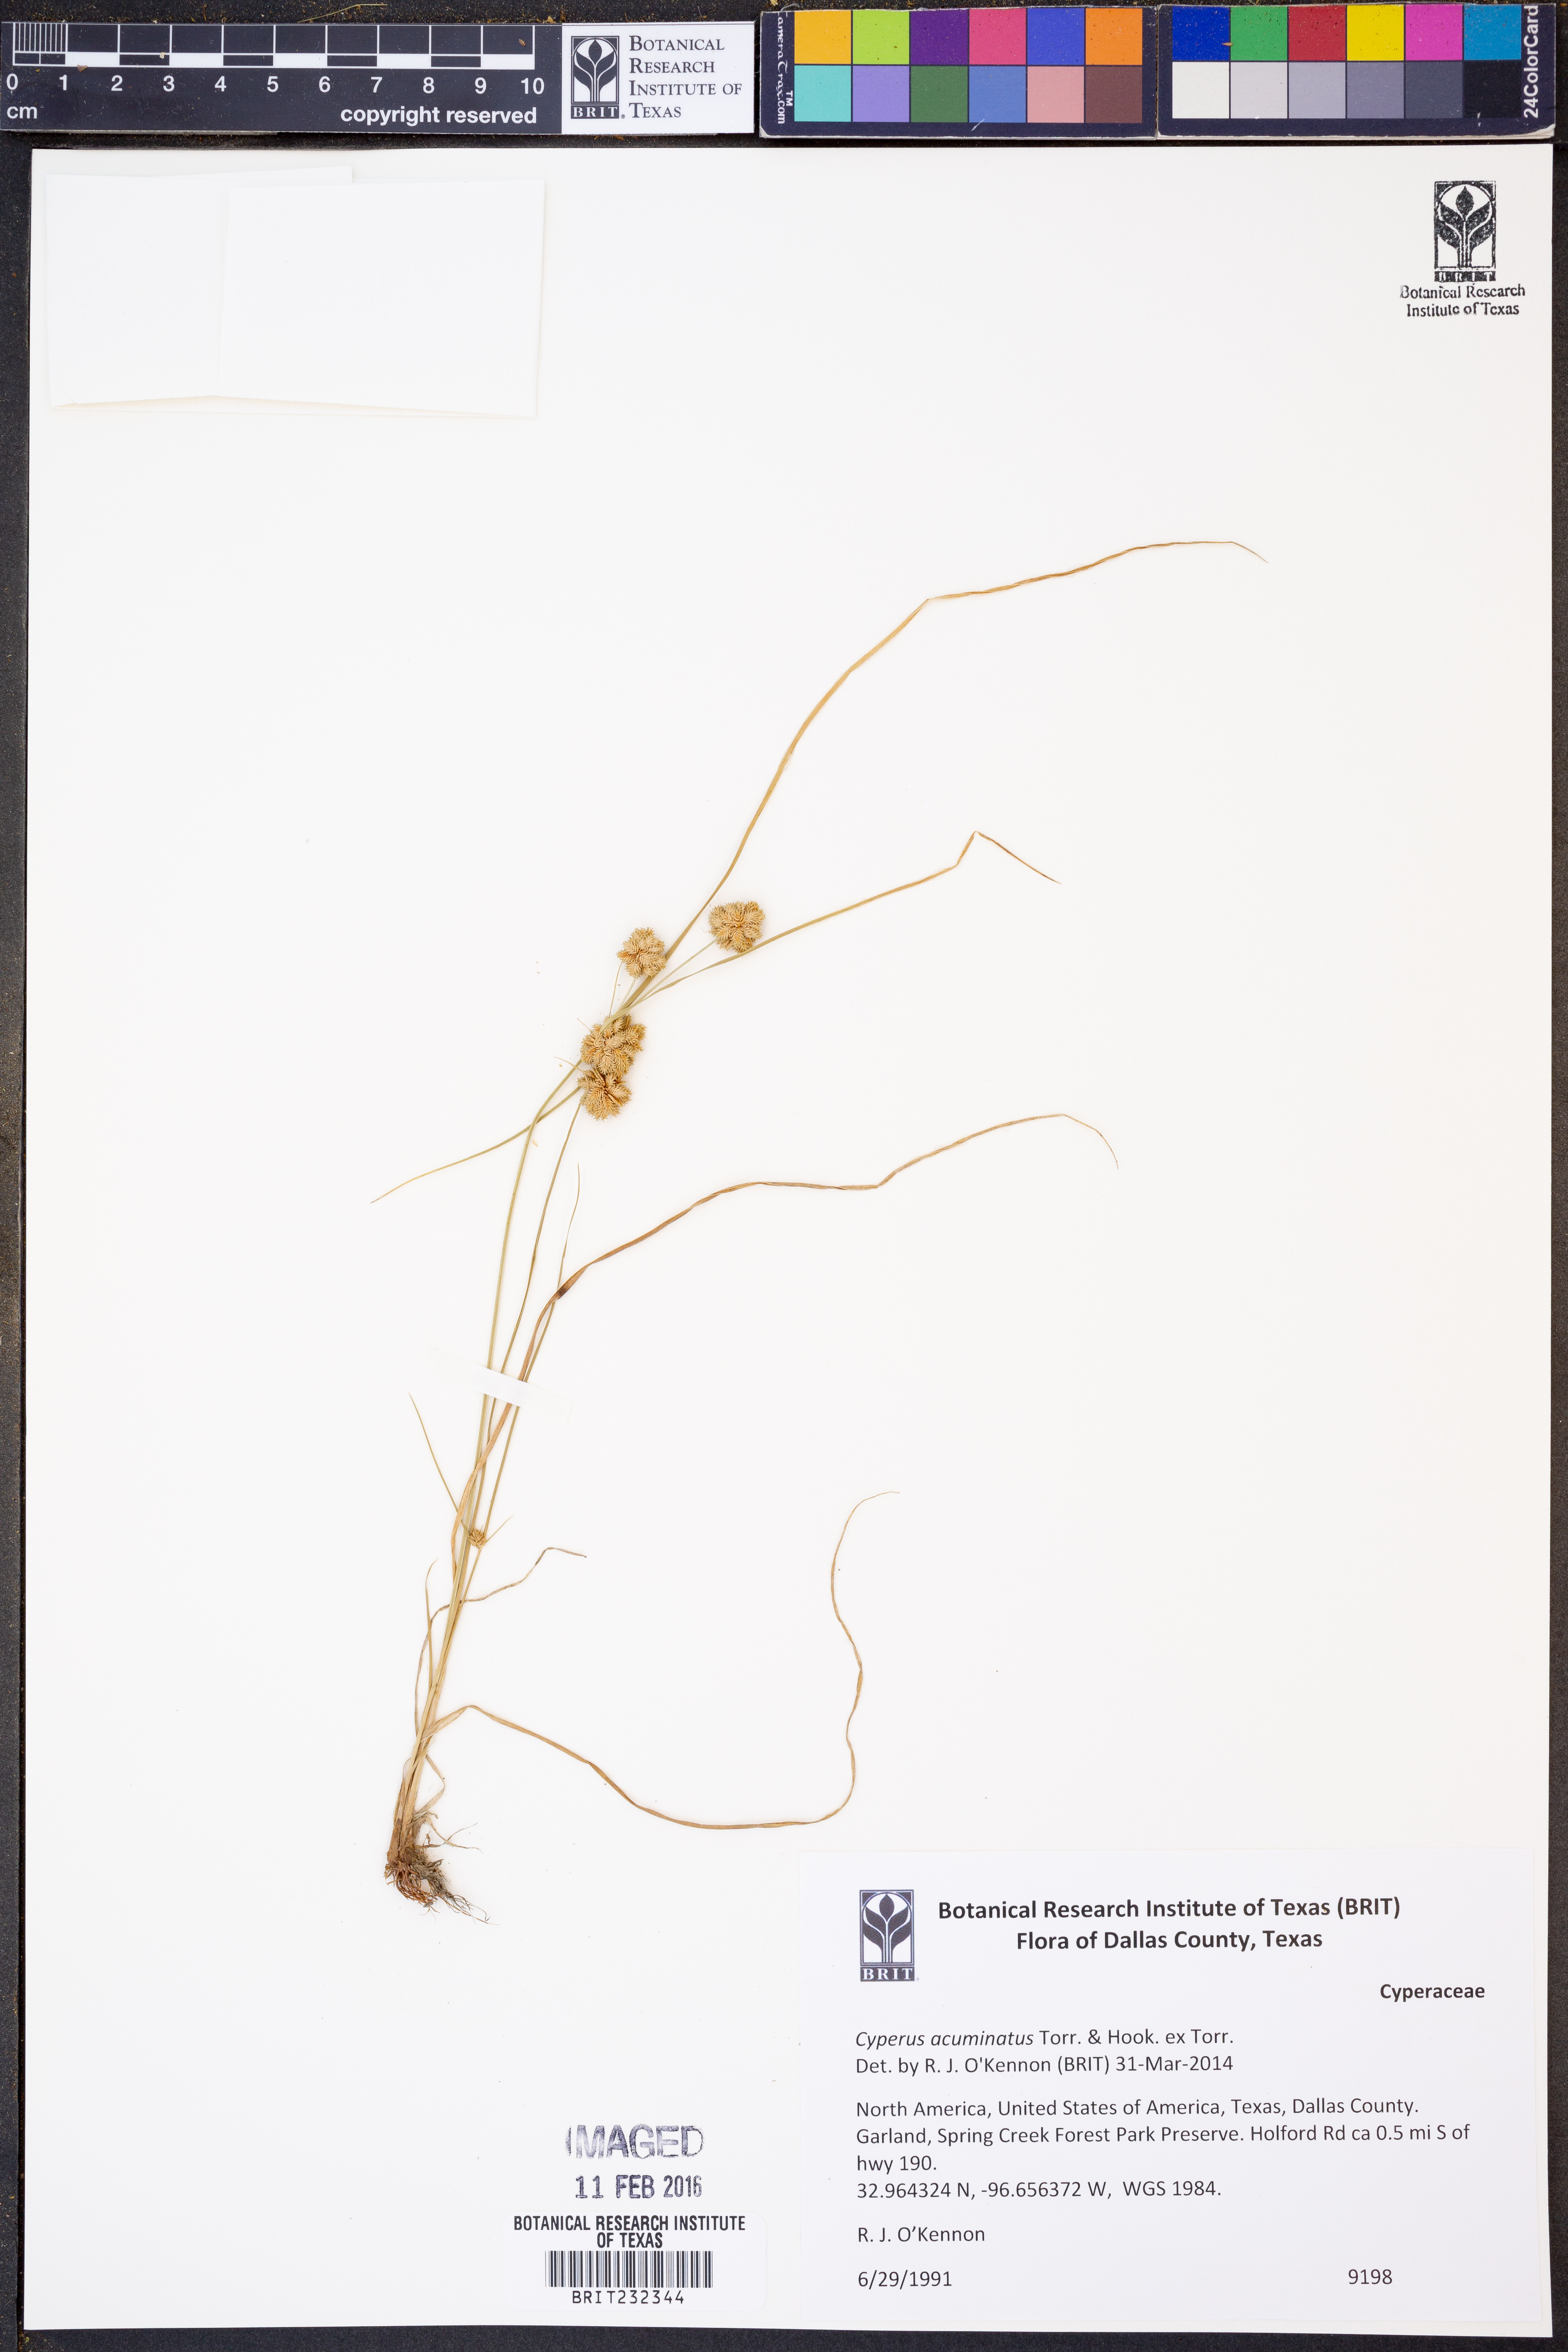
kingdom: Plantae
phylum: Tracheophyta
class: Liliopsida
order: Poales
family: Cyperaceae
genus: Cyperus
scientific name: Cyperus acuminatus
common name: Short-pointed cyperus
